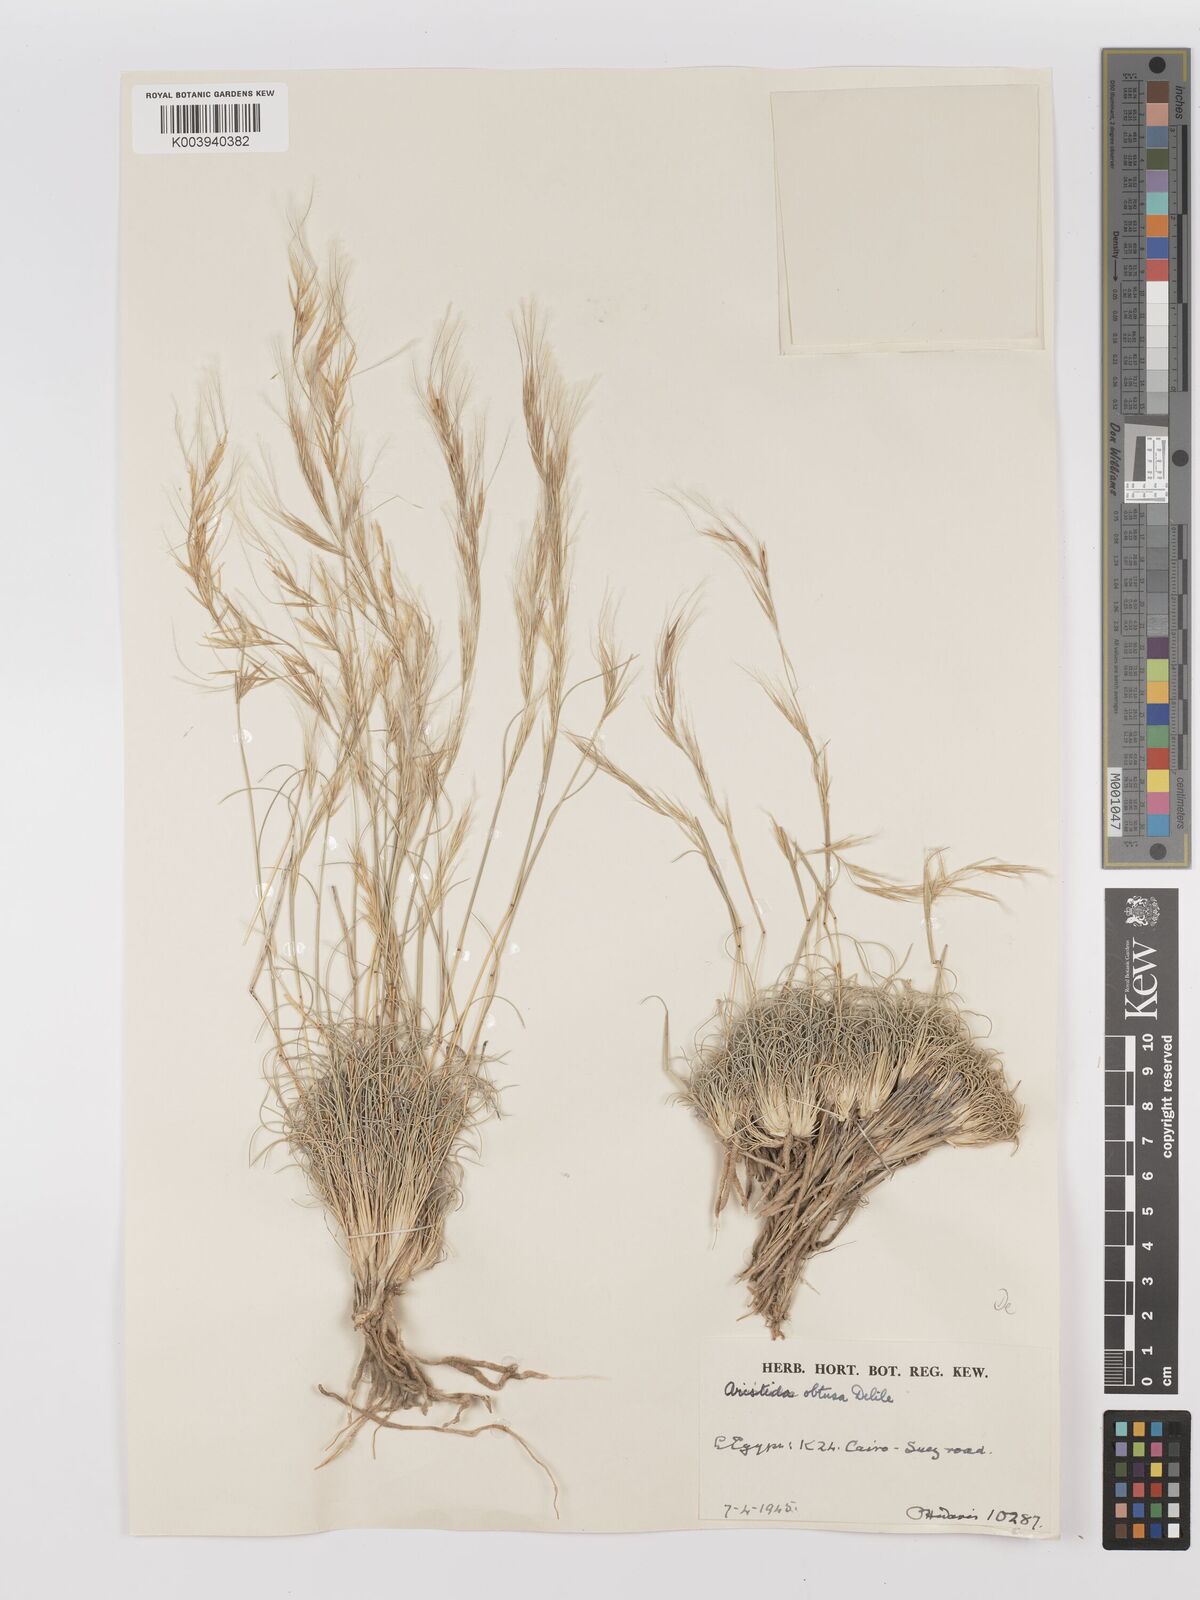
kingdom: Plantae
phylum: Tracheophyta
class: Liliopsida
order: Poales
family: Poaceae
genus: Stipagrostis
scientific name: Stipagrostis obtusa
